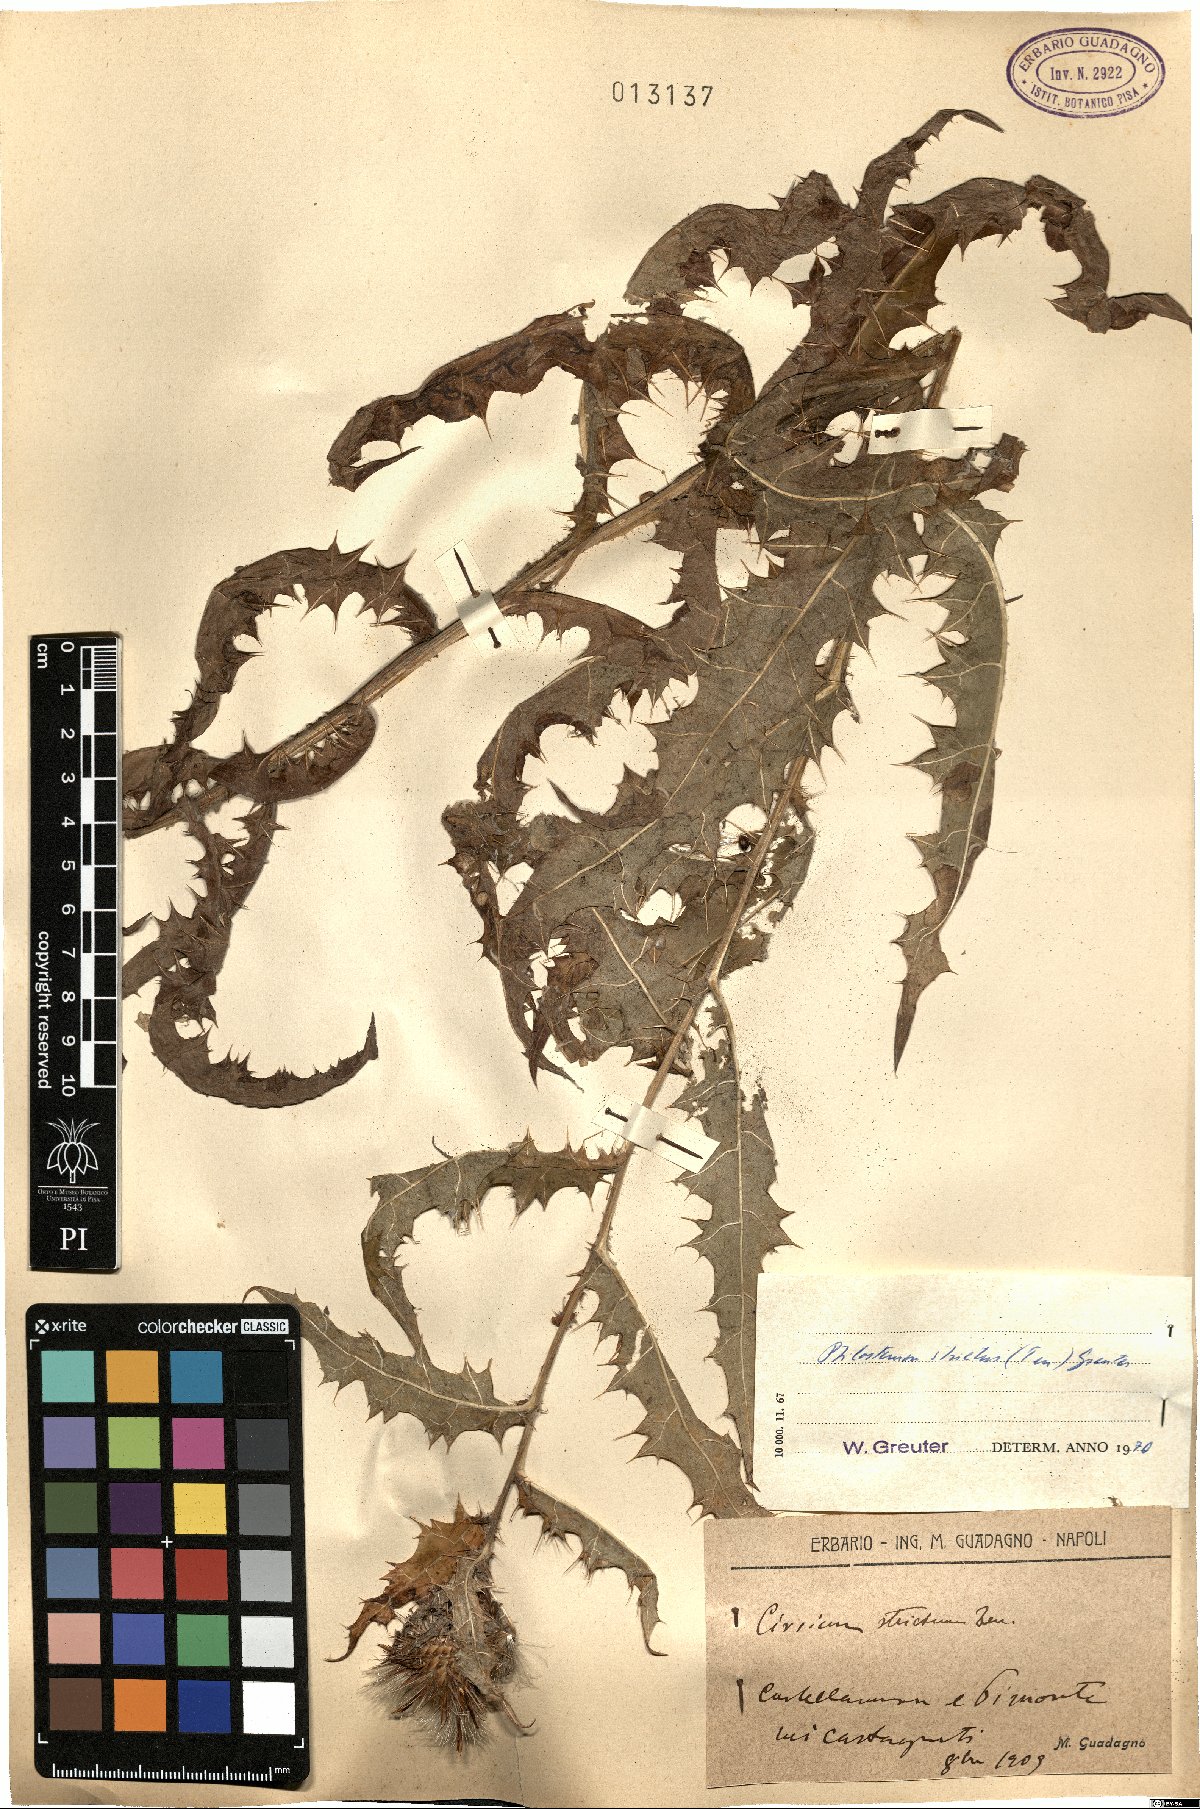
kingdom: Plantae
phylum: Tracheophyta
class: Magnoliopsida
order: Asterales
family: Asteraceae
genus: Ptilostemon
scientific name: Ptilostemon strictus
